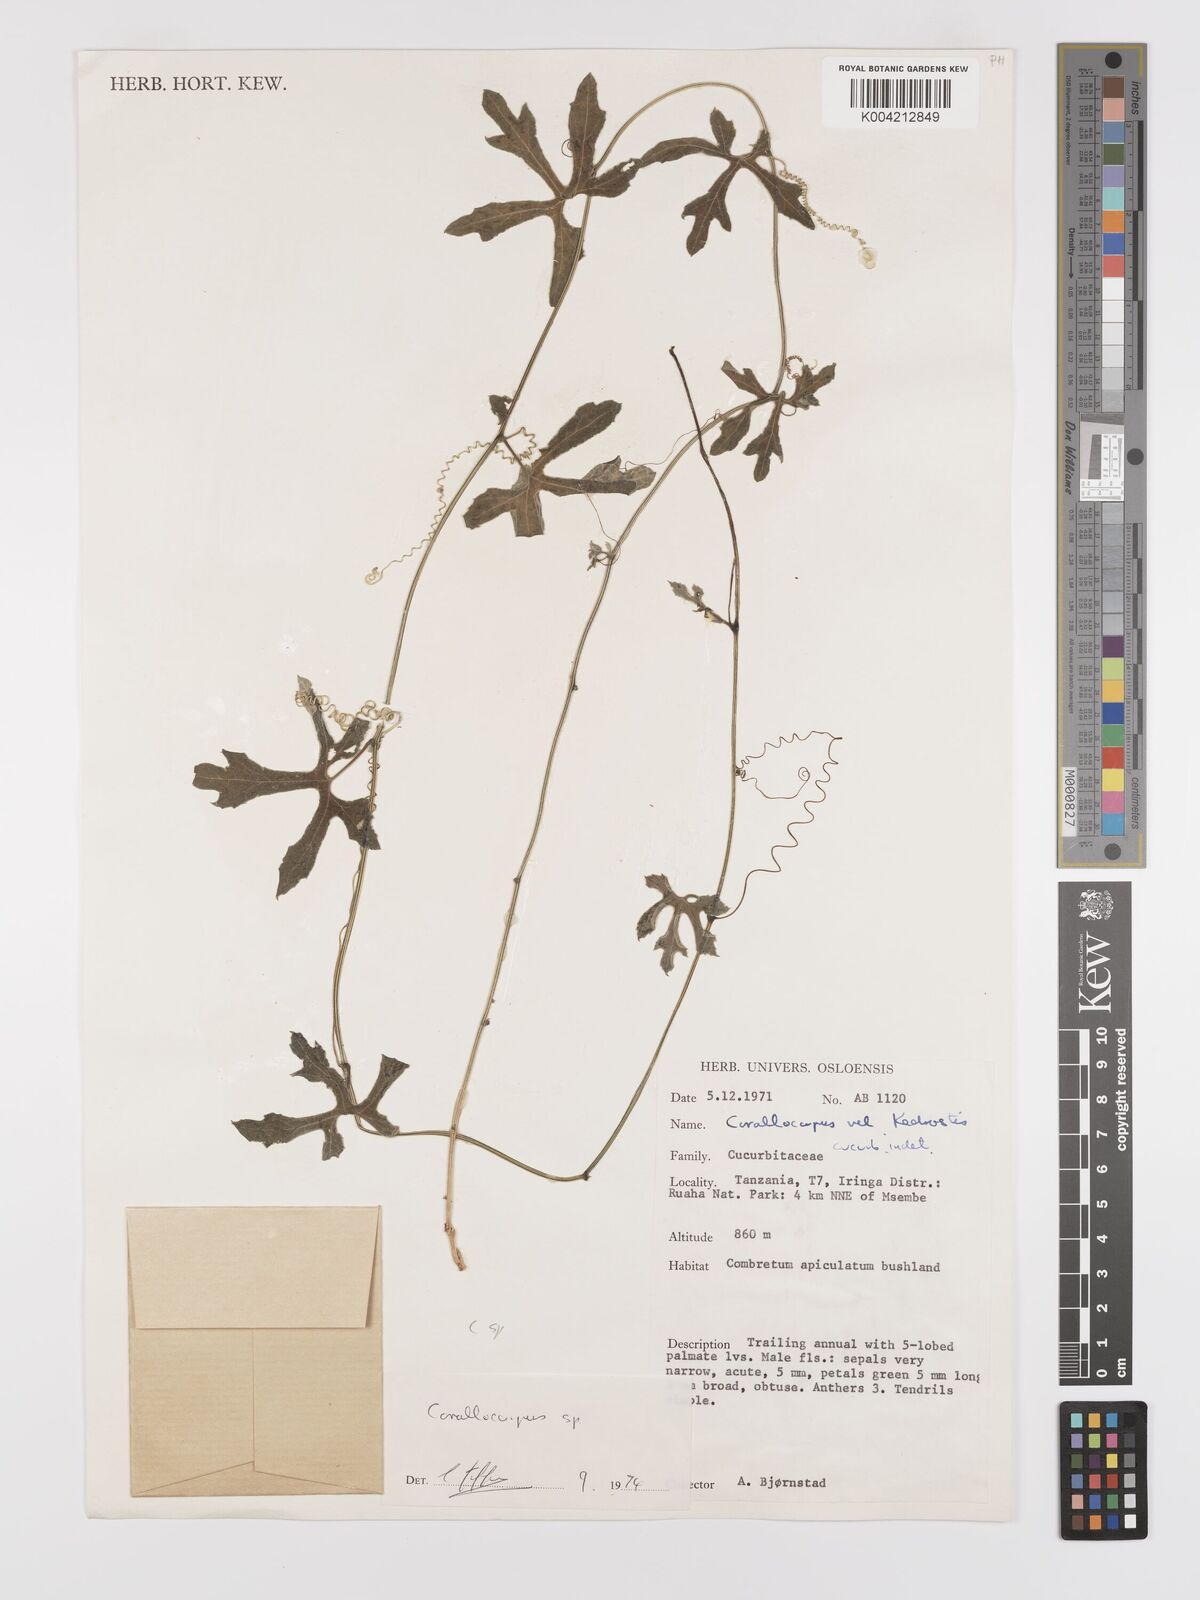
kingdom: Plantae
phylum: Tracheophyta
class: Magnoliopsida
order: Cucurbitales
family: Cucurbitaceae
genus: Corallocarpus
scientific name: Corallocarpus
